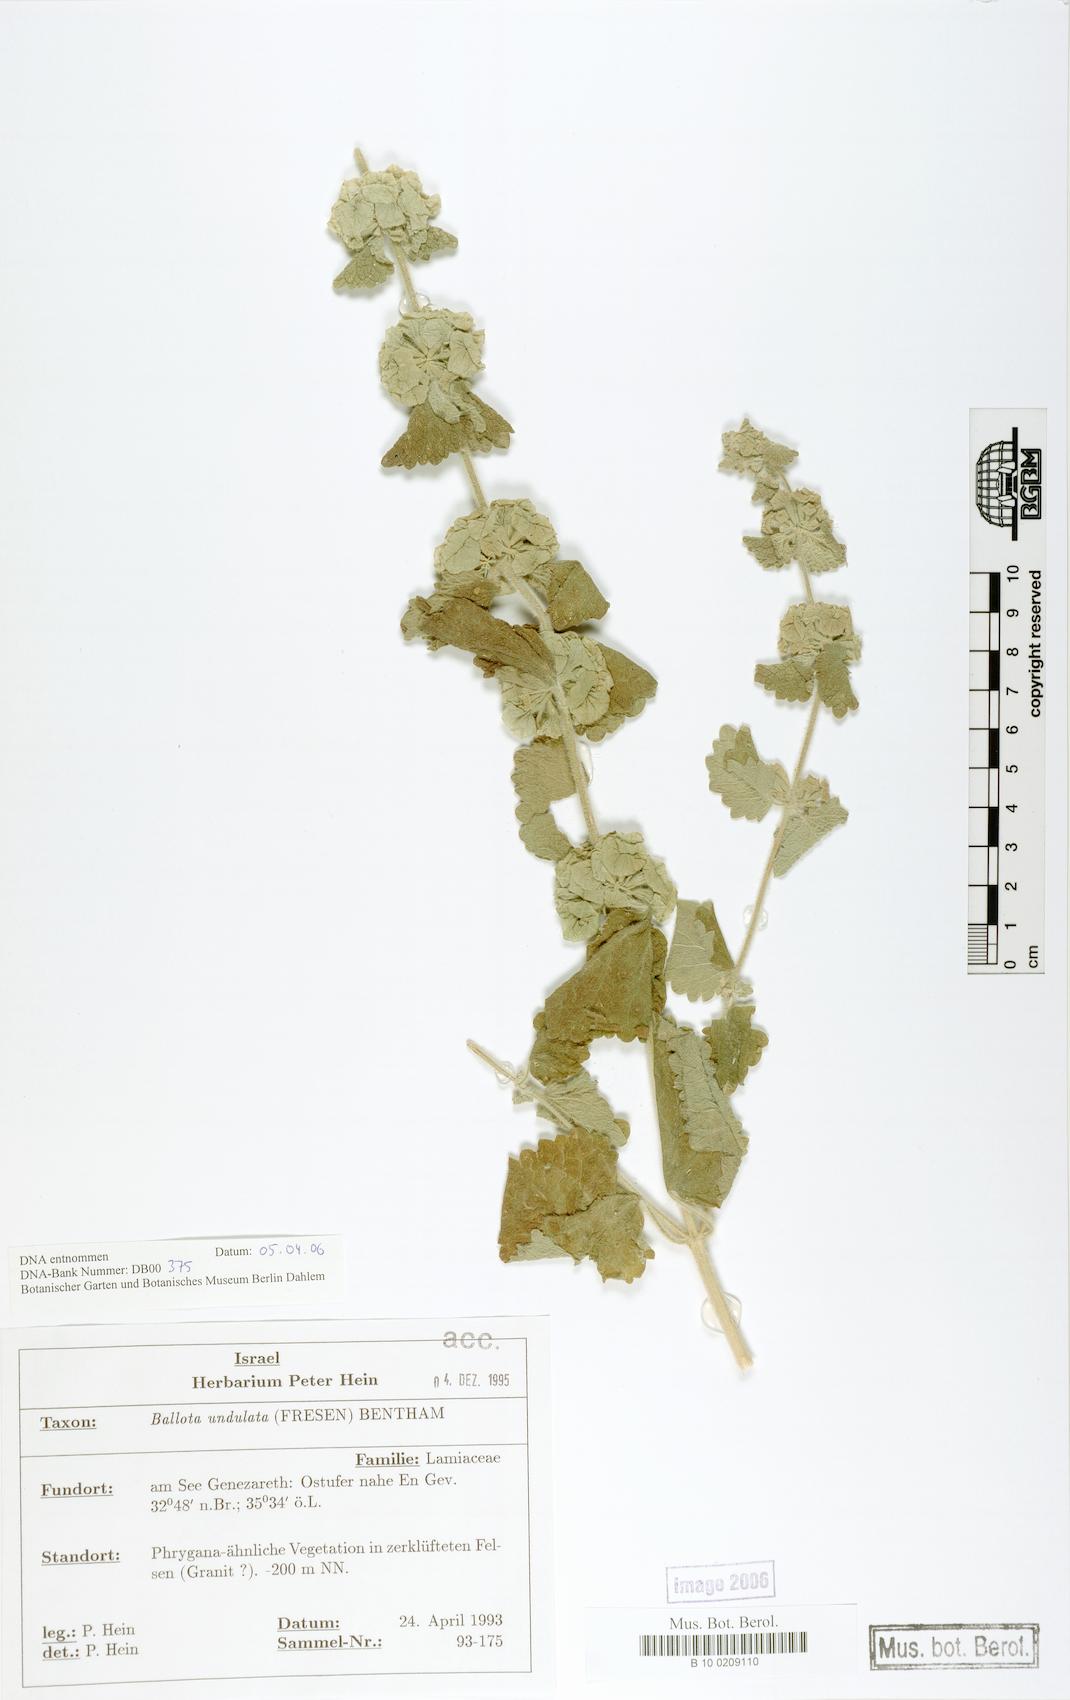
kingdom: Plantae
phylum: Tracheophyta
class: Magnoliopsida
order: Lamiales
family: Lamiaceae
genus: Pseudodictamnus
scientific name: Pseudodictamnus undulatus
